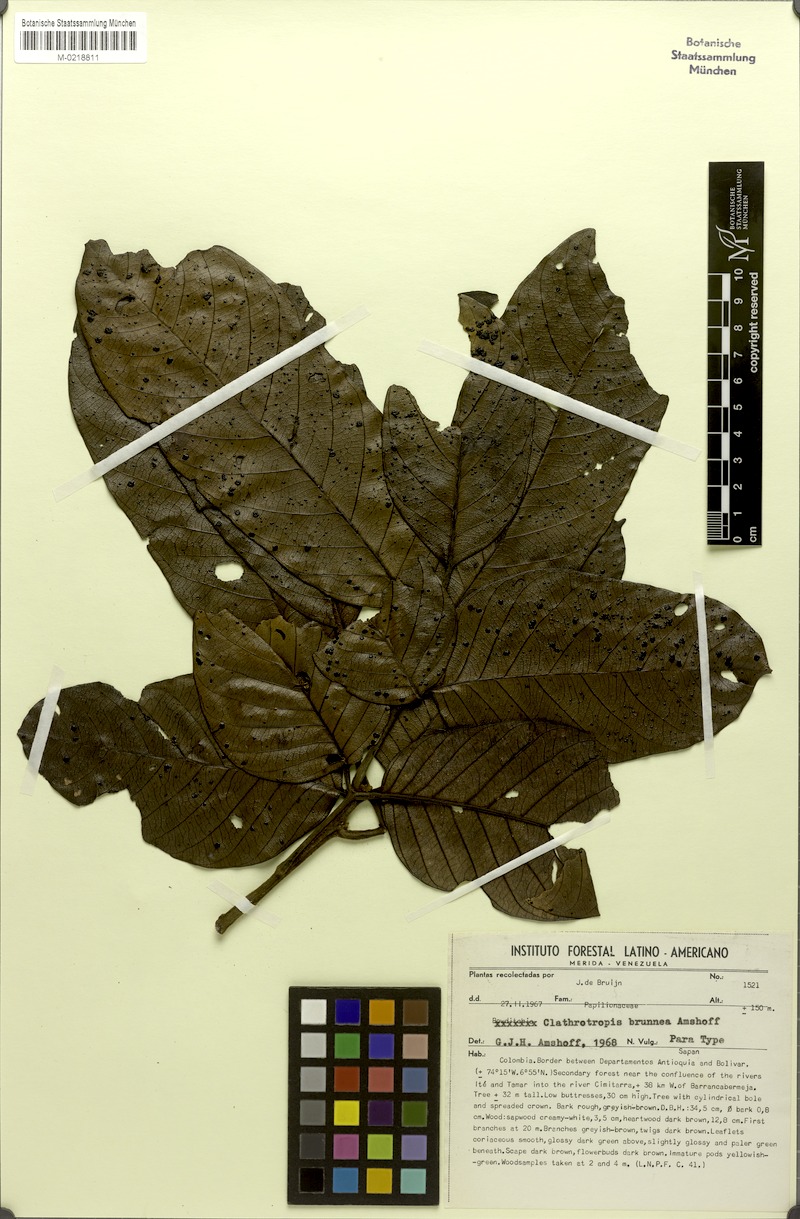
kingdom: Plantae
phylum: Tracheophyta
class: Magnoliopsida
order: Fabales
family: Fabaceae
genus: Clathrotropis
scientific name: Clathrotropis brunnea
